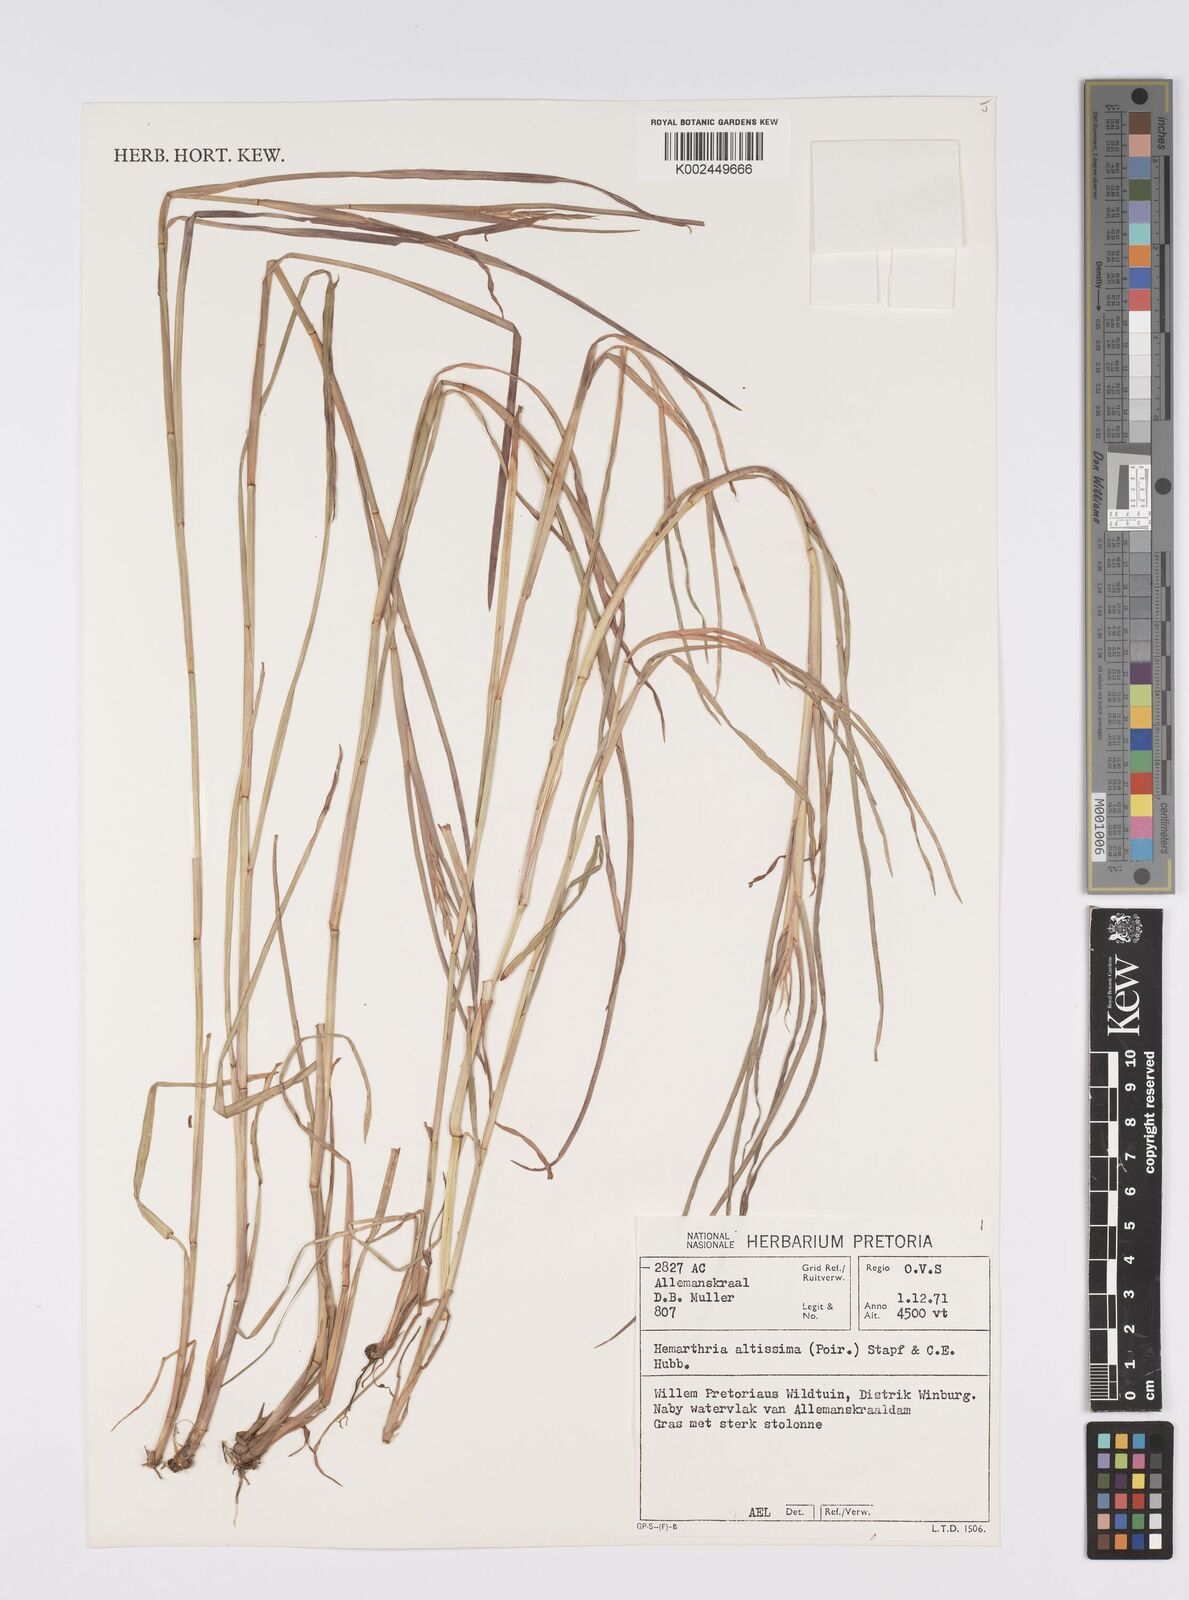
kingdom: Plantae
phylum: Tracheophyta
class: Liliopsida
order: Poales
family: Poaceae
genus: Hemarthria
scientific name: Hemarthria altissima
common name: African jointgrass
